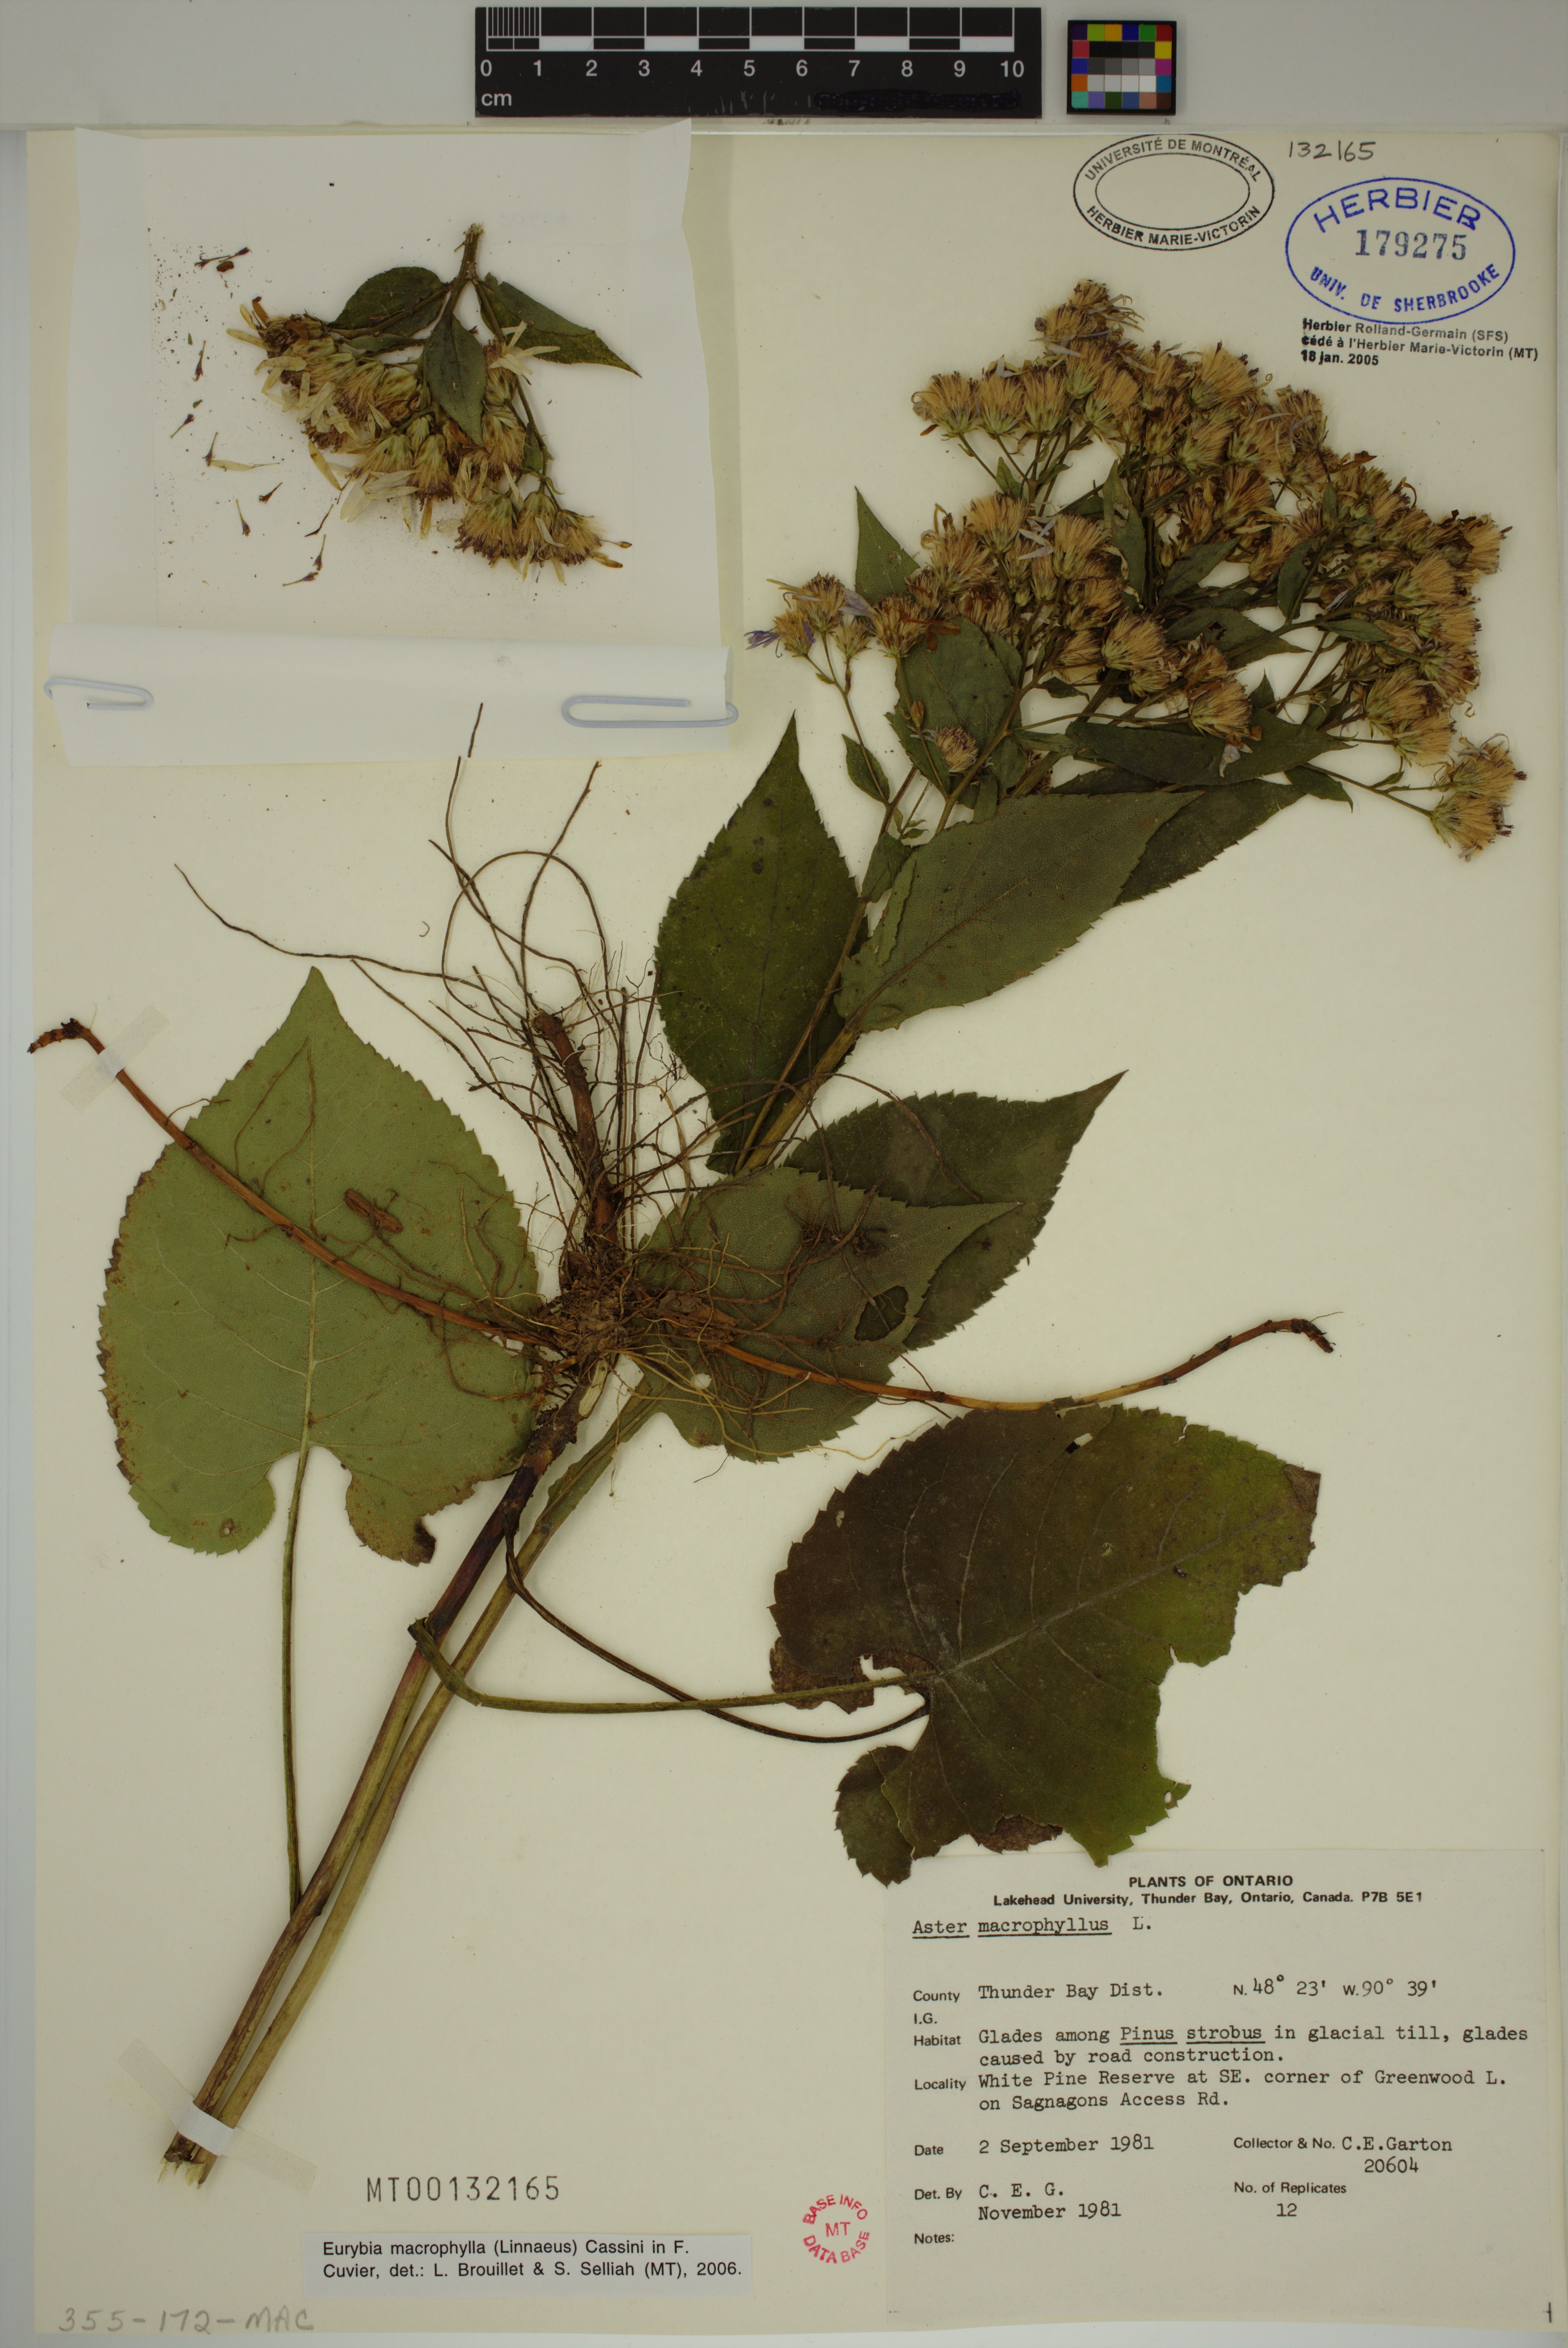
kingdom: Plantae
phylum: Tracheophyta
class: Magnoliopsida
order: Asterales
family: Asteraceae
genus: Eurybia
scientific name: Eurybia macrophylla
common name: Big-leaved aster
